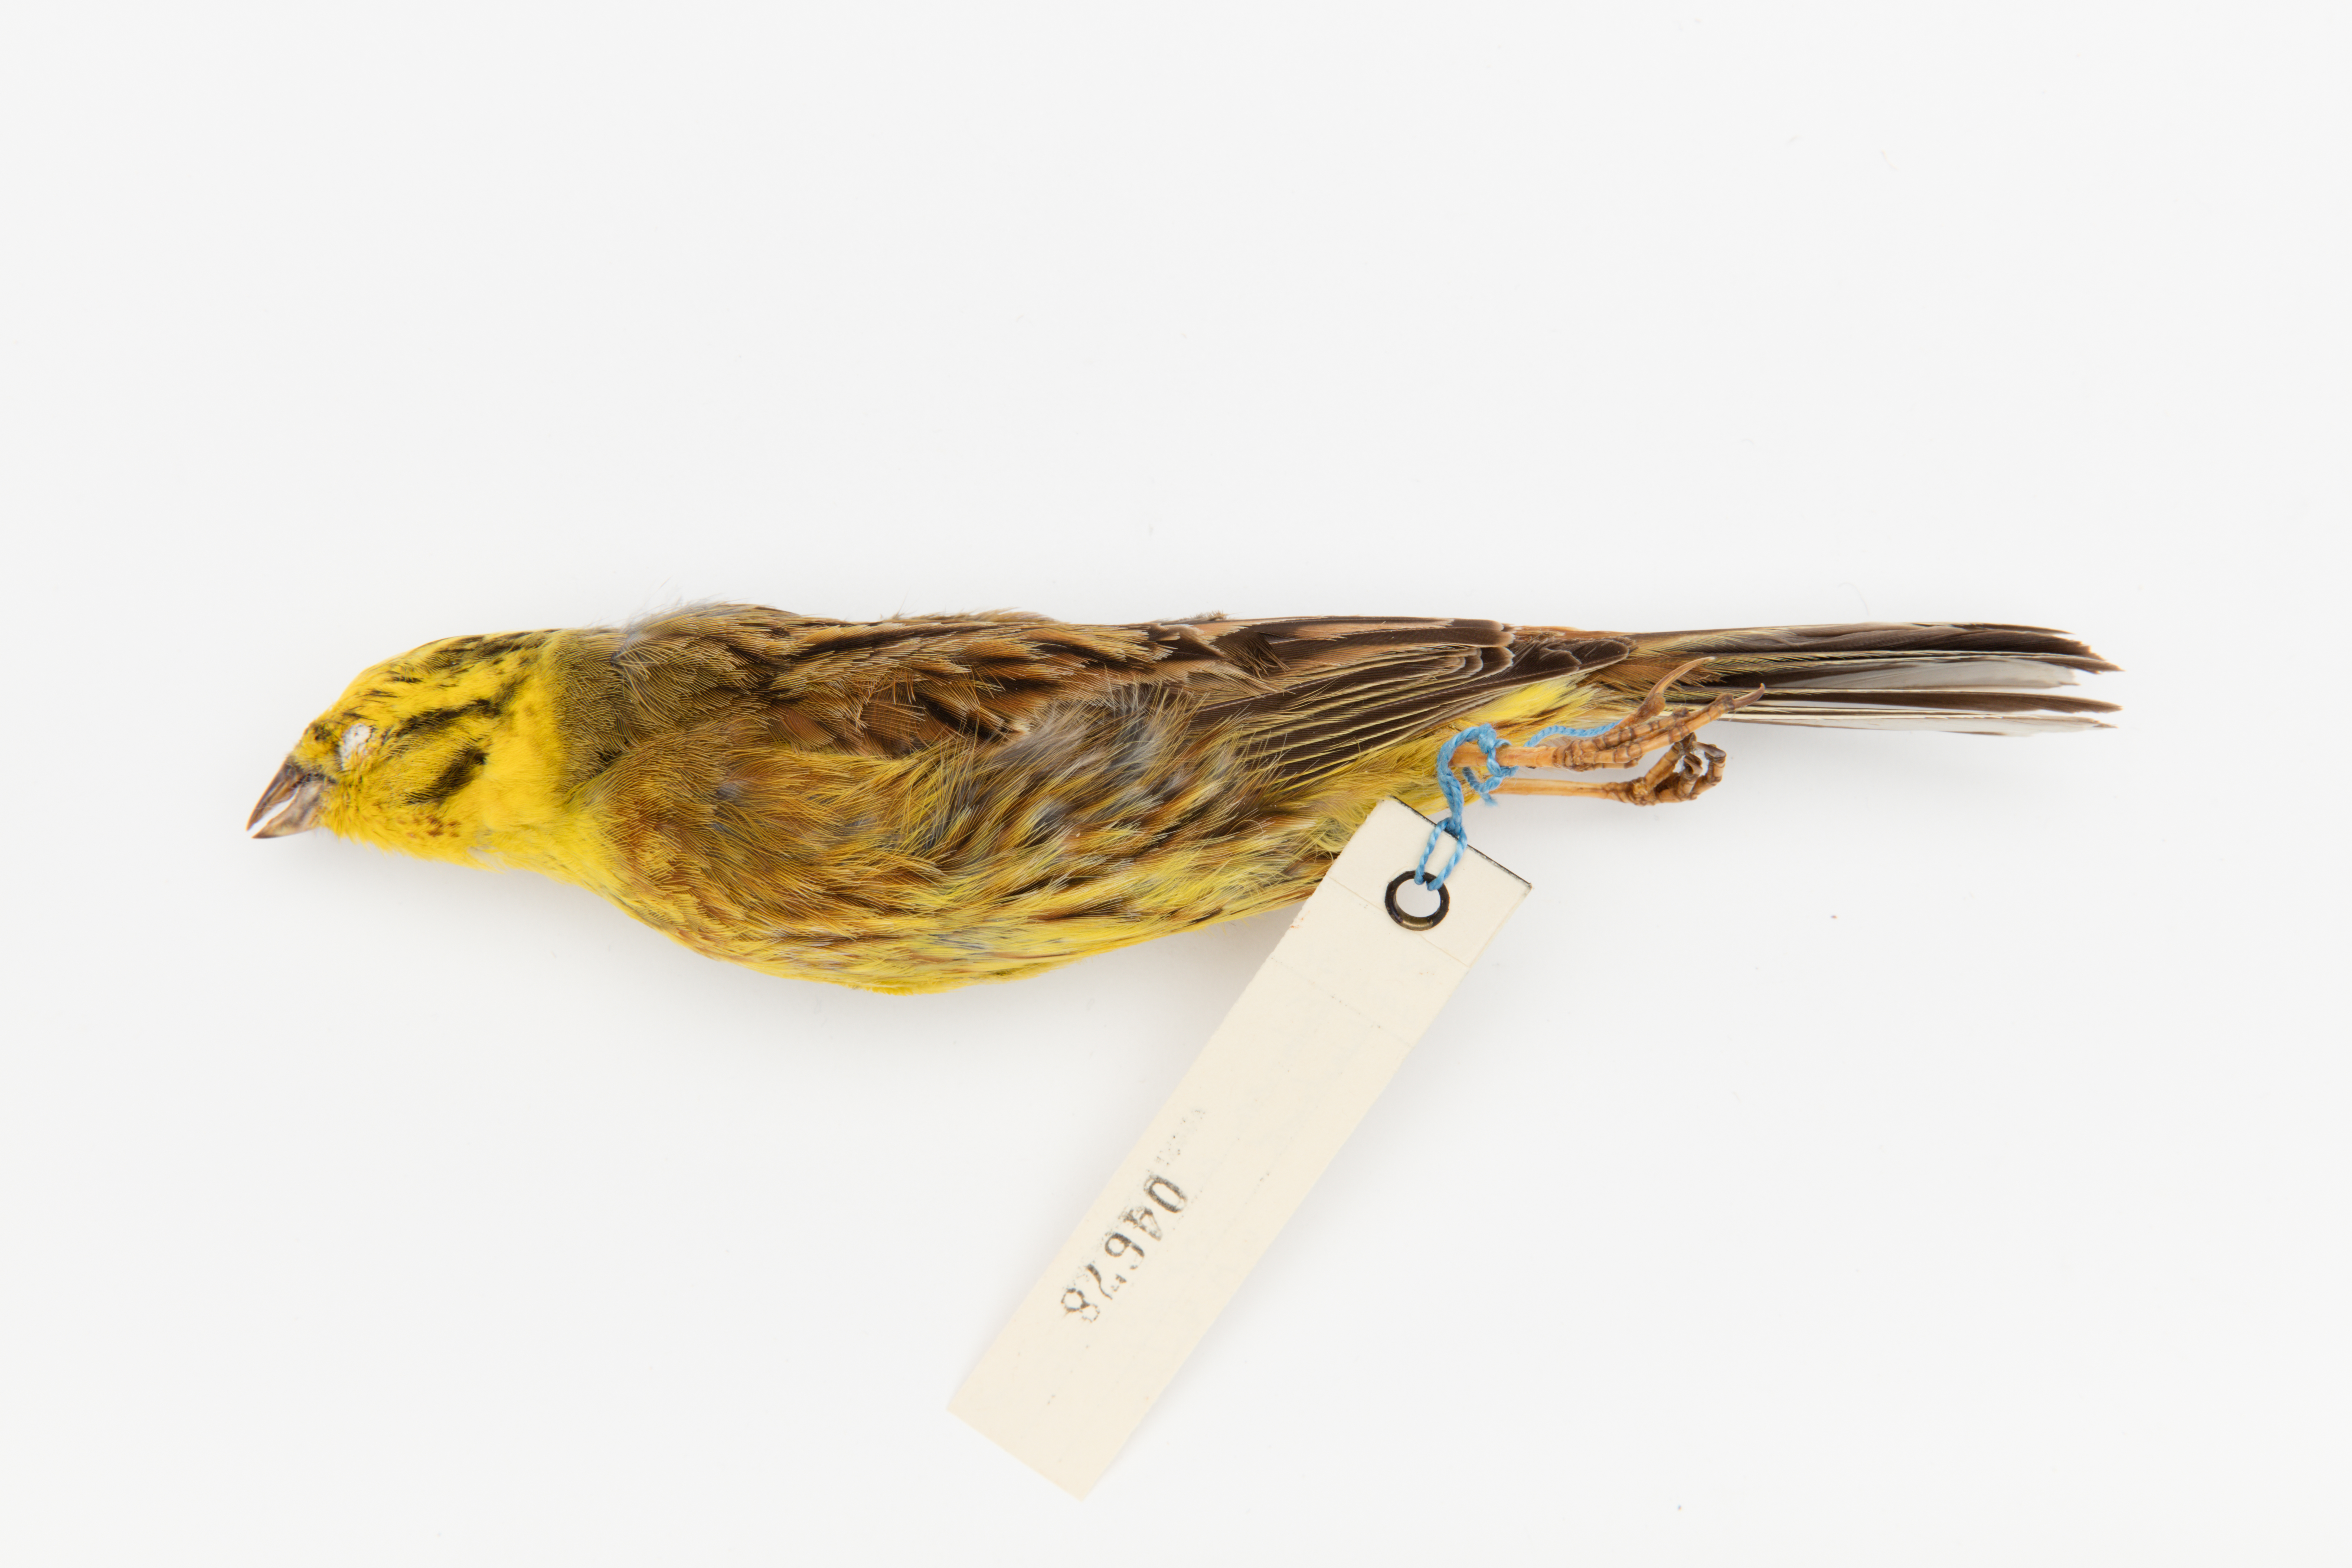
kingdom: Animalia
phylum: Chordata
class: Aves
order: Passeriformes
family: Emberizidae
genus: Emberiza
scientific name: Emberiza citrinella
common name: Yellowhammer
